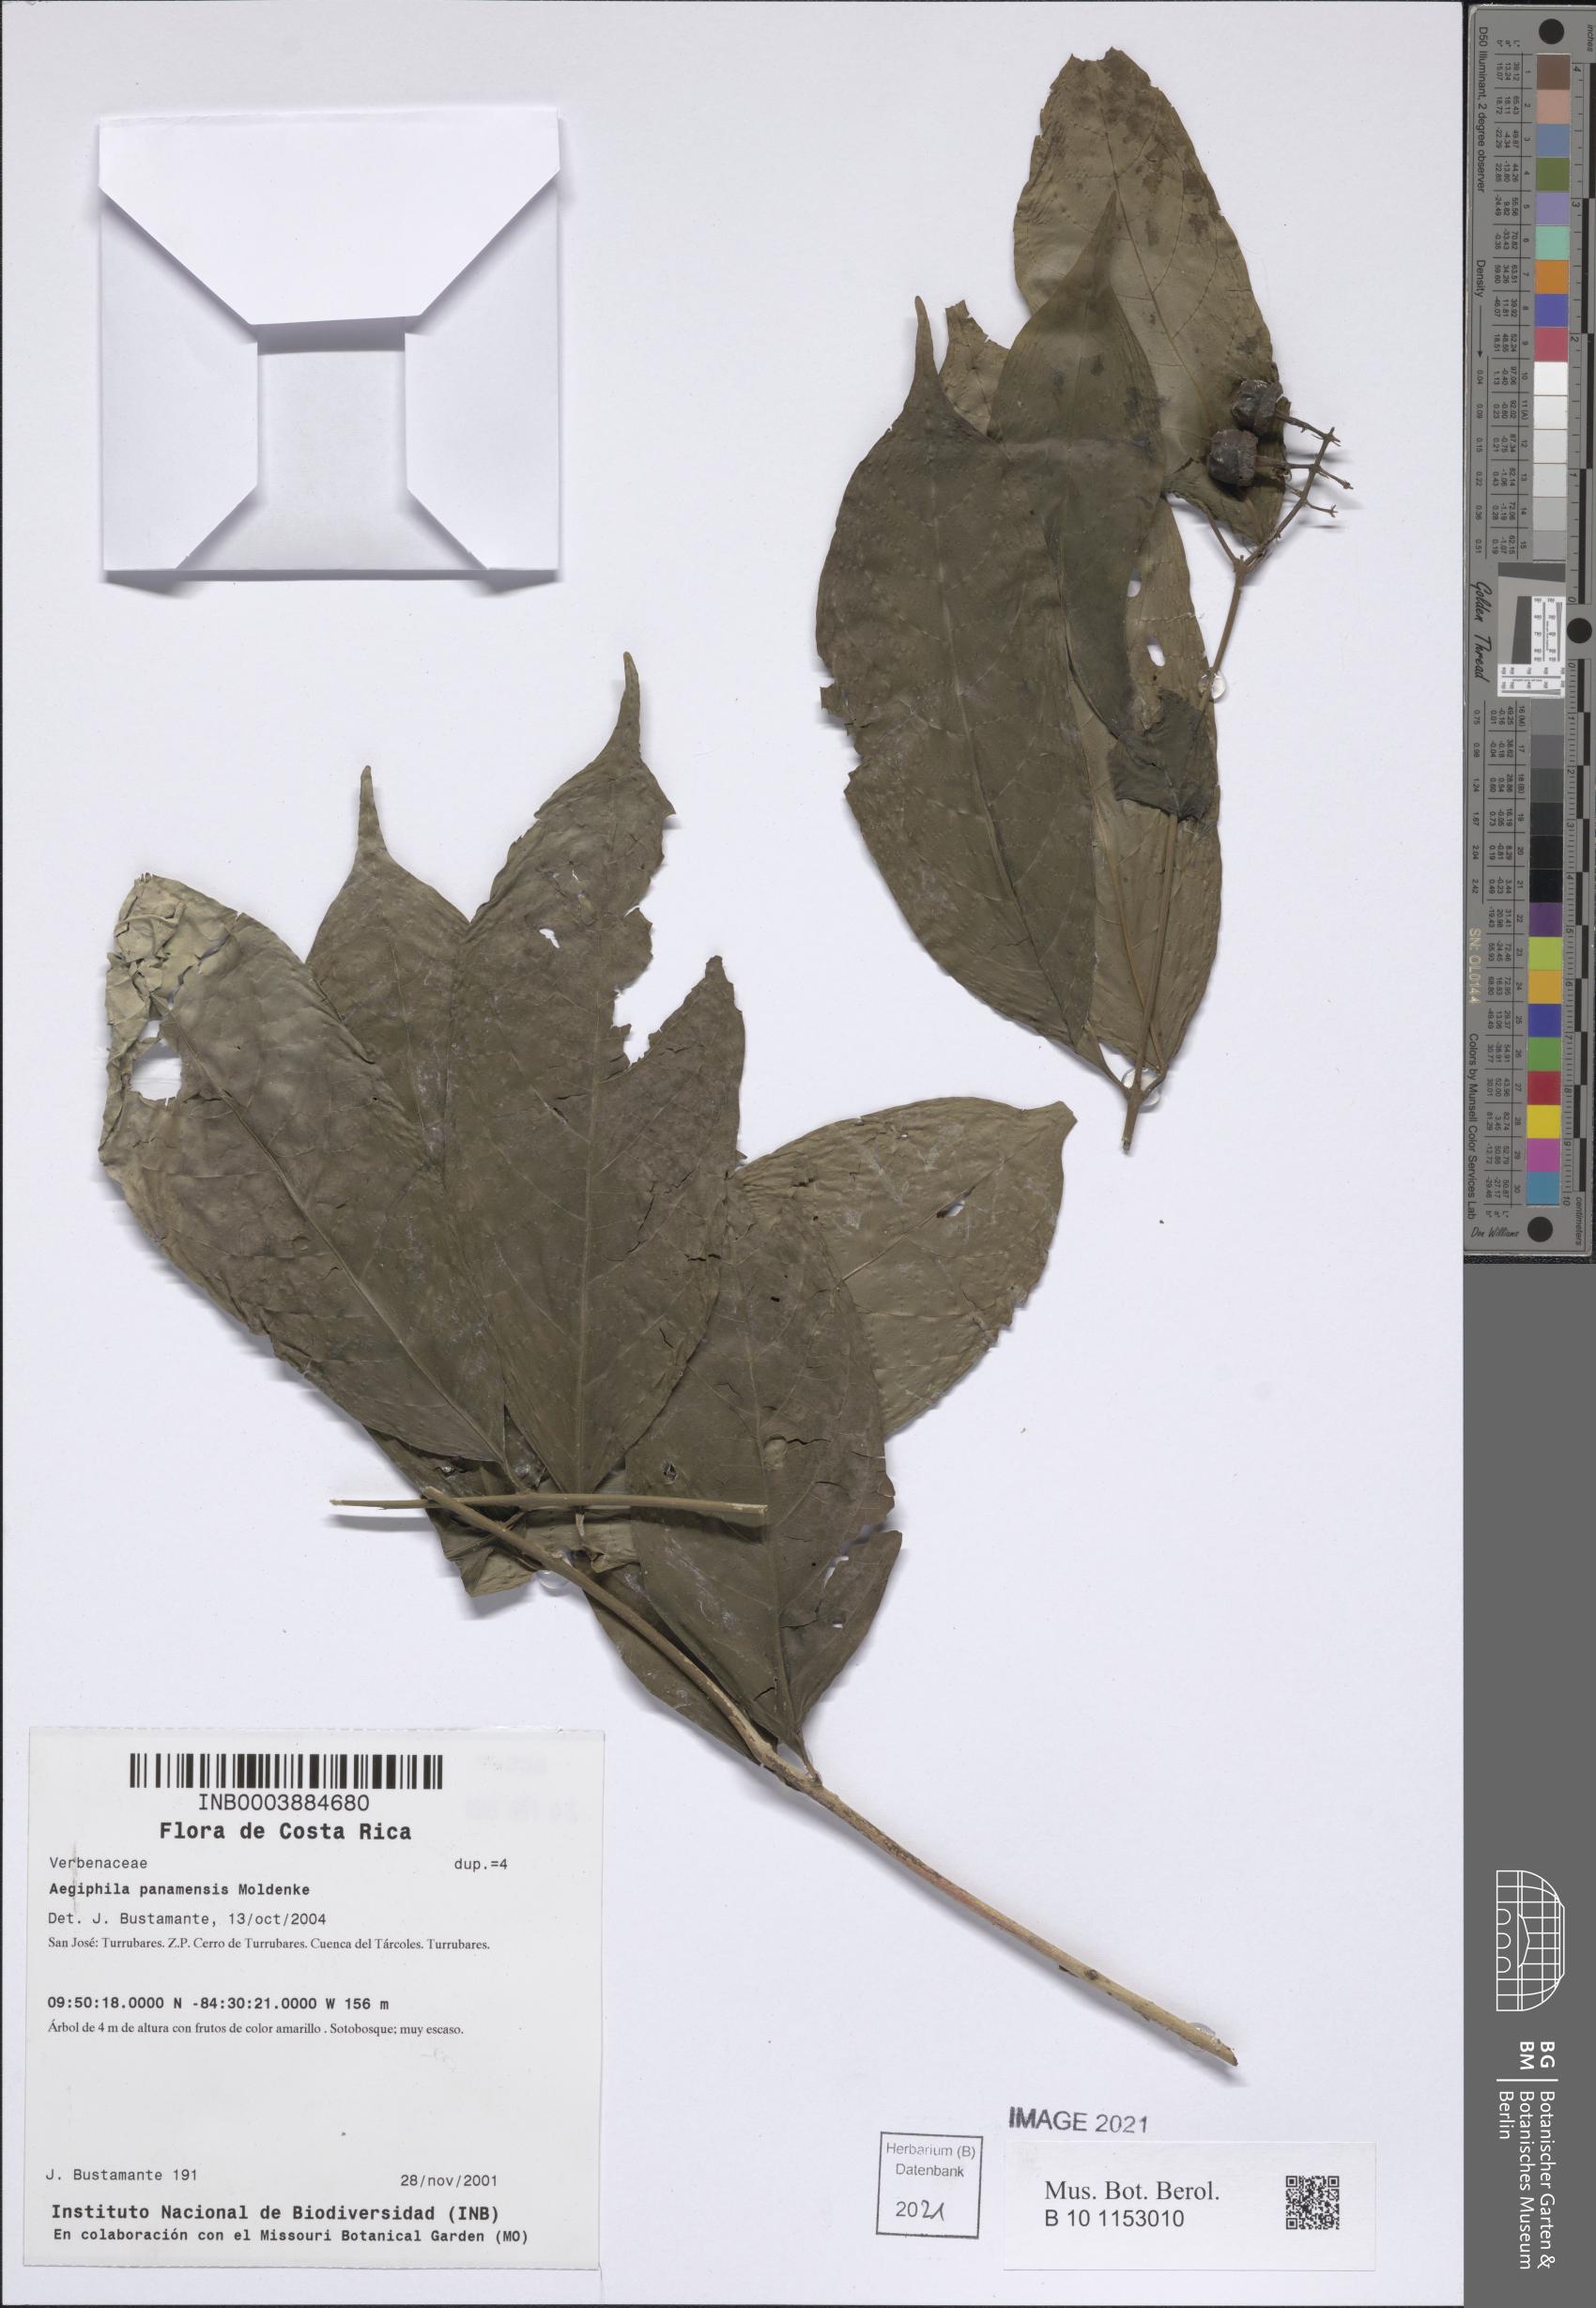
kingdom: Plantae
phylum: Tracheophyta
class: Magnoliopsida
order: Lamiales
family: Lamiaceae
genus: Aegiphila
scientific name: Aegiphila panamensis
